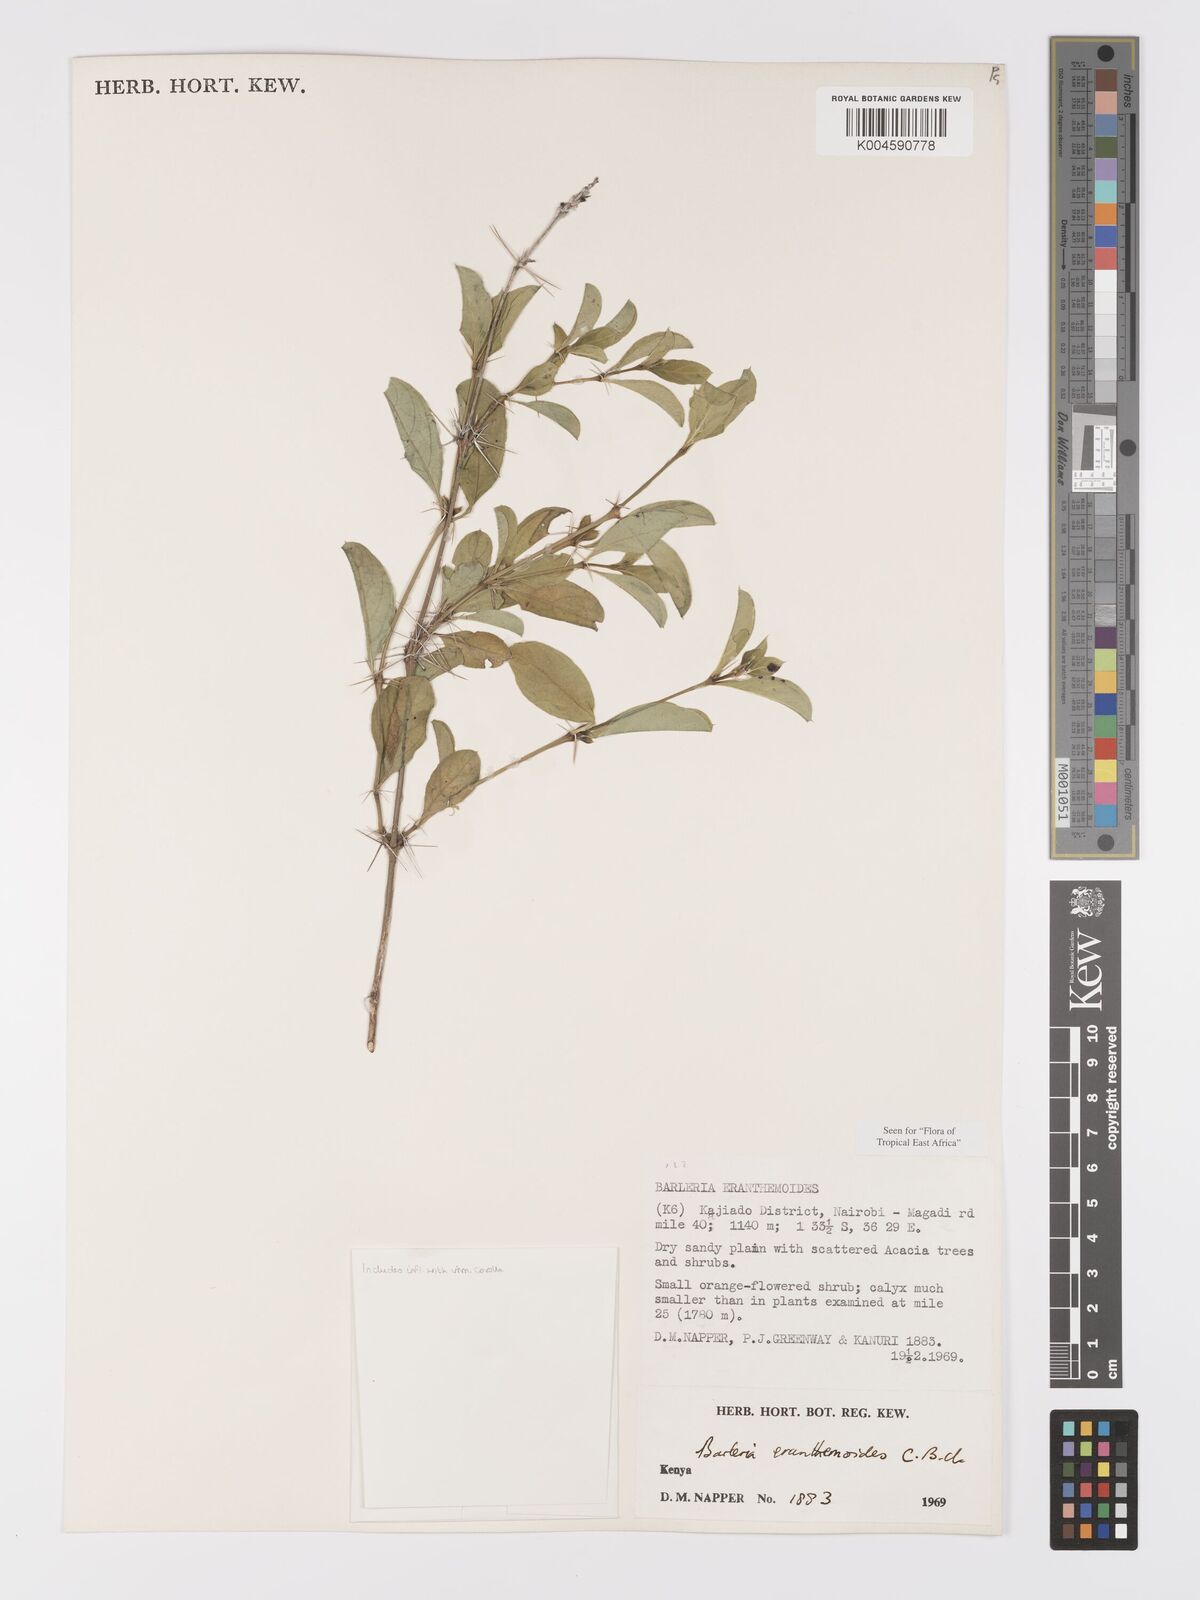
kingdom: Plantae
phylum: Tracheophyta
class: Magnoliopsida
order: Lamiales
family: Acanthaceae
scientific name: Acanthaceae
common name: Acanthaceae
